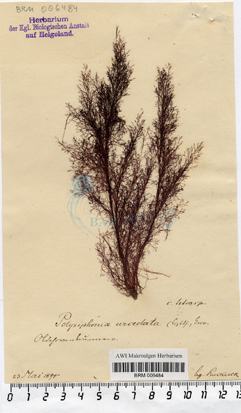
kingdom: Plantae
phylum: Rhodophyta
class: Florideophyceae
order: Ceramiales
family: Rhodomelaceae
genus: Polysiphonia
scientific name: Polysiphonia stricta
